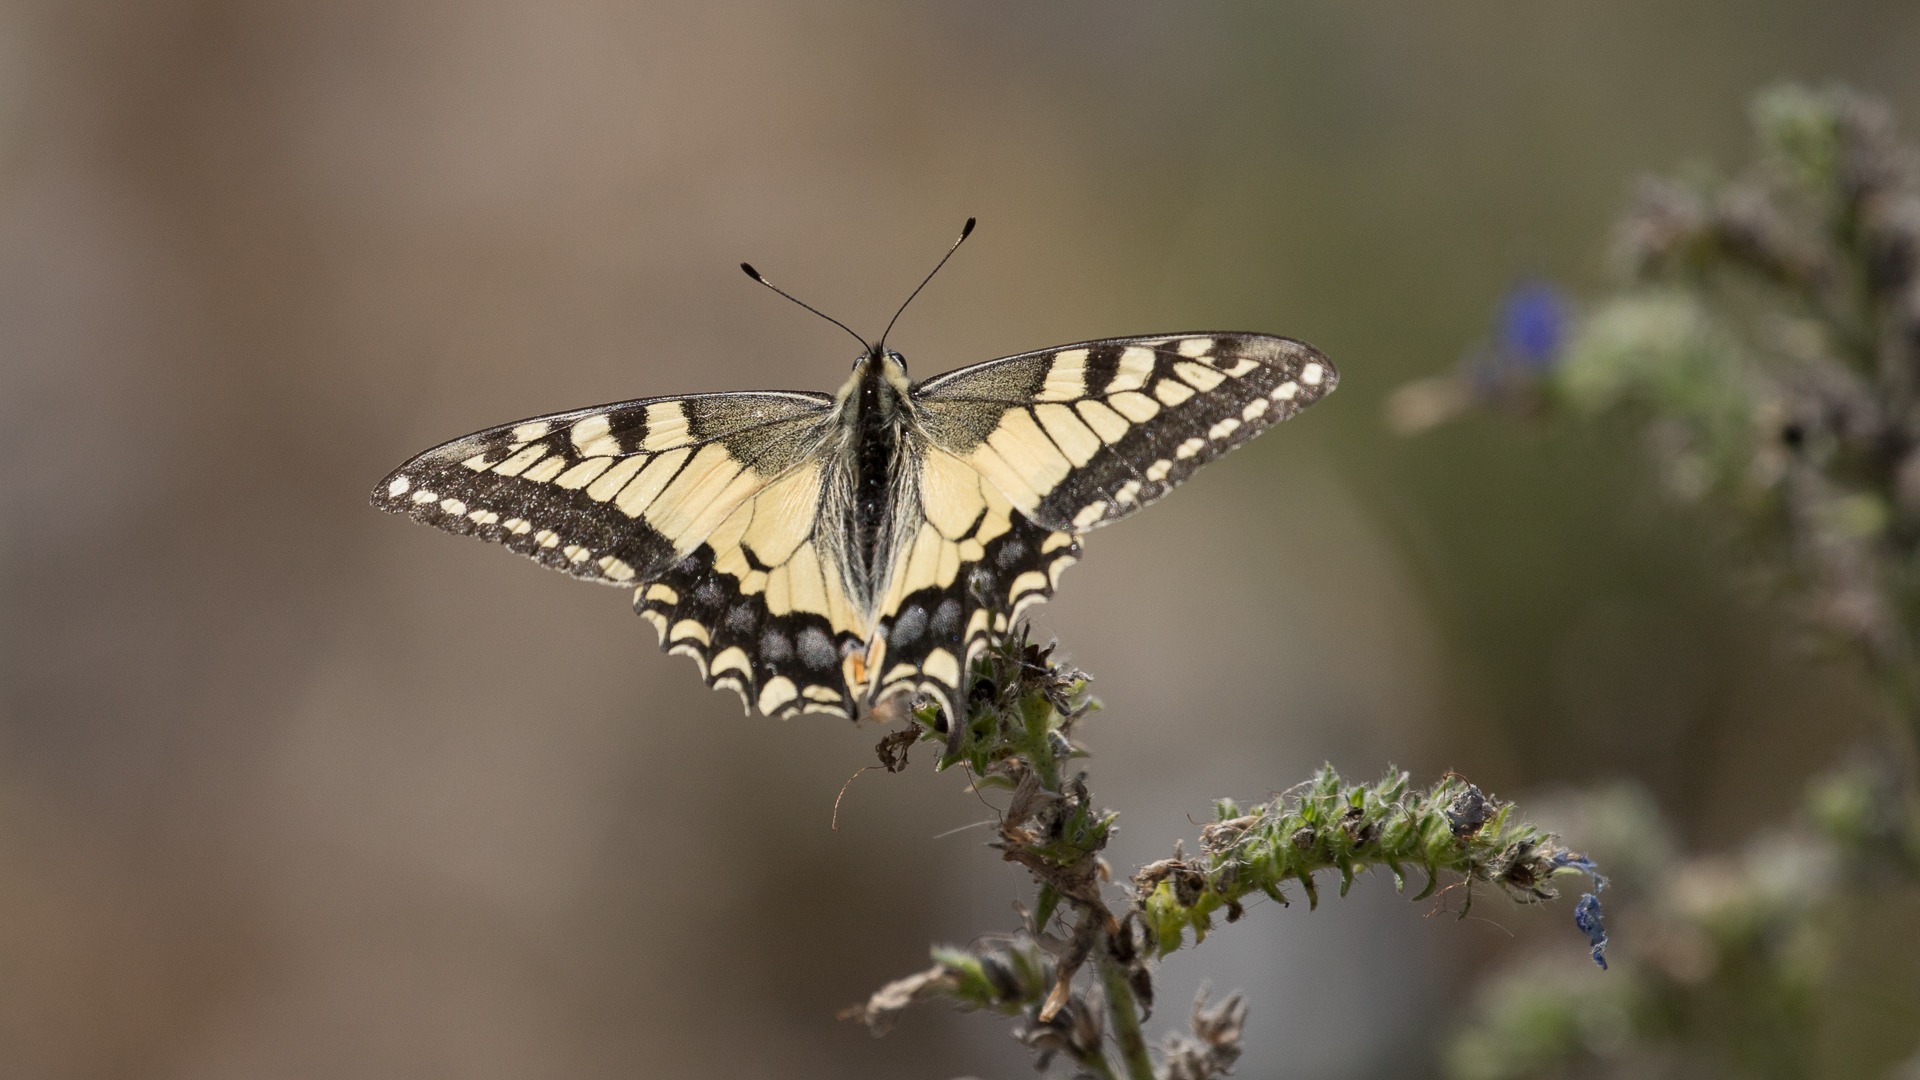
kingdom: Animalia
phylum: Arthropoda
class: Insecta
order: Lepidoptera
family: Papilionidae
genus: Papilio
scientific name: Papilio machaon
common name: Svalehale
